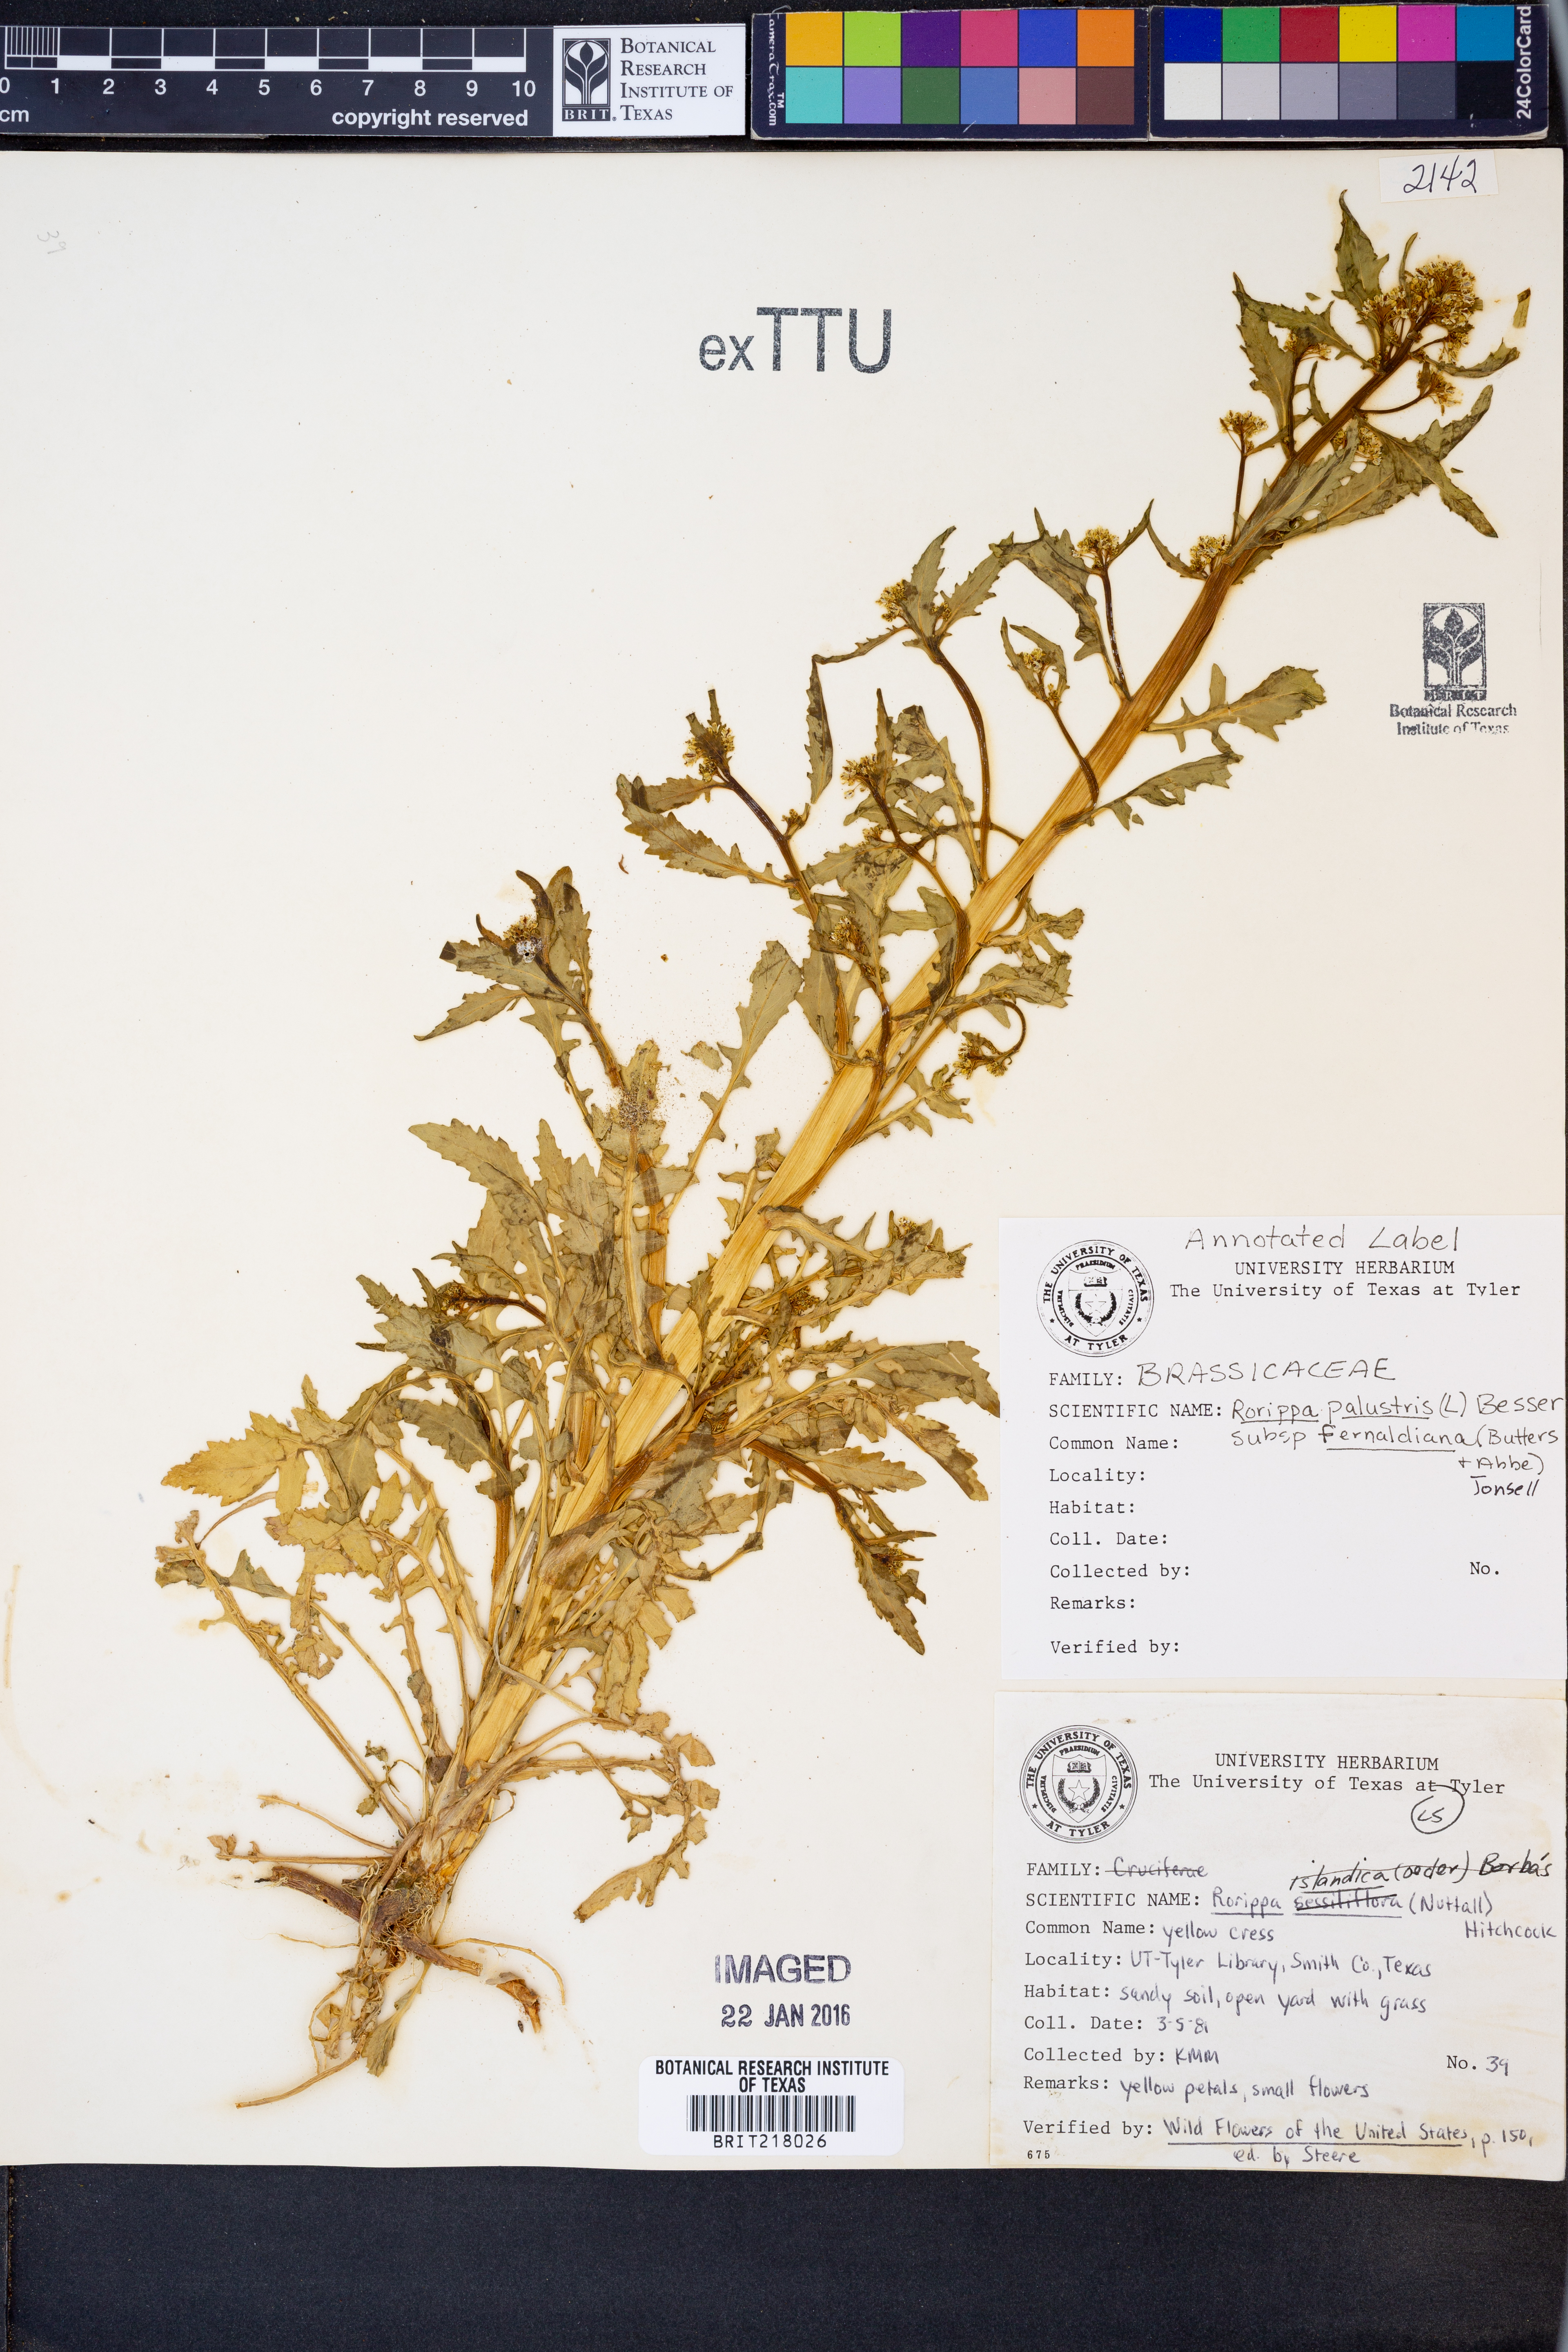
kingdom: Plantae
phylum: Tracheophyta
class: Magnoliopsida
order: Brassicales
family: Brassicaceae
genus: Rorippa
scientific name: Rorippa palustris
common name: Marsh yellow-cress
